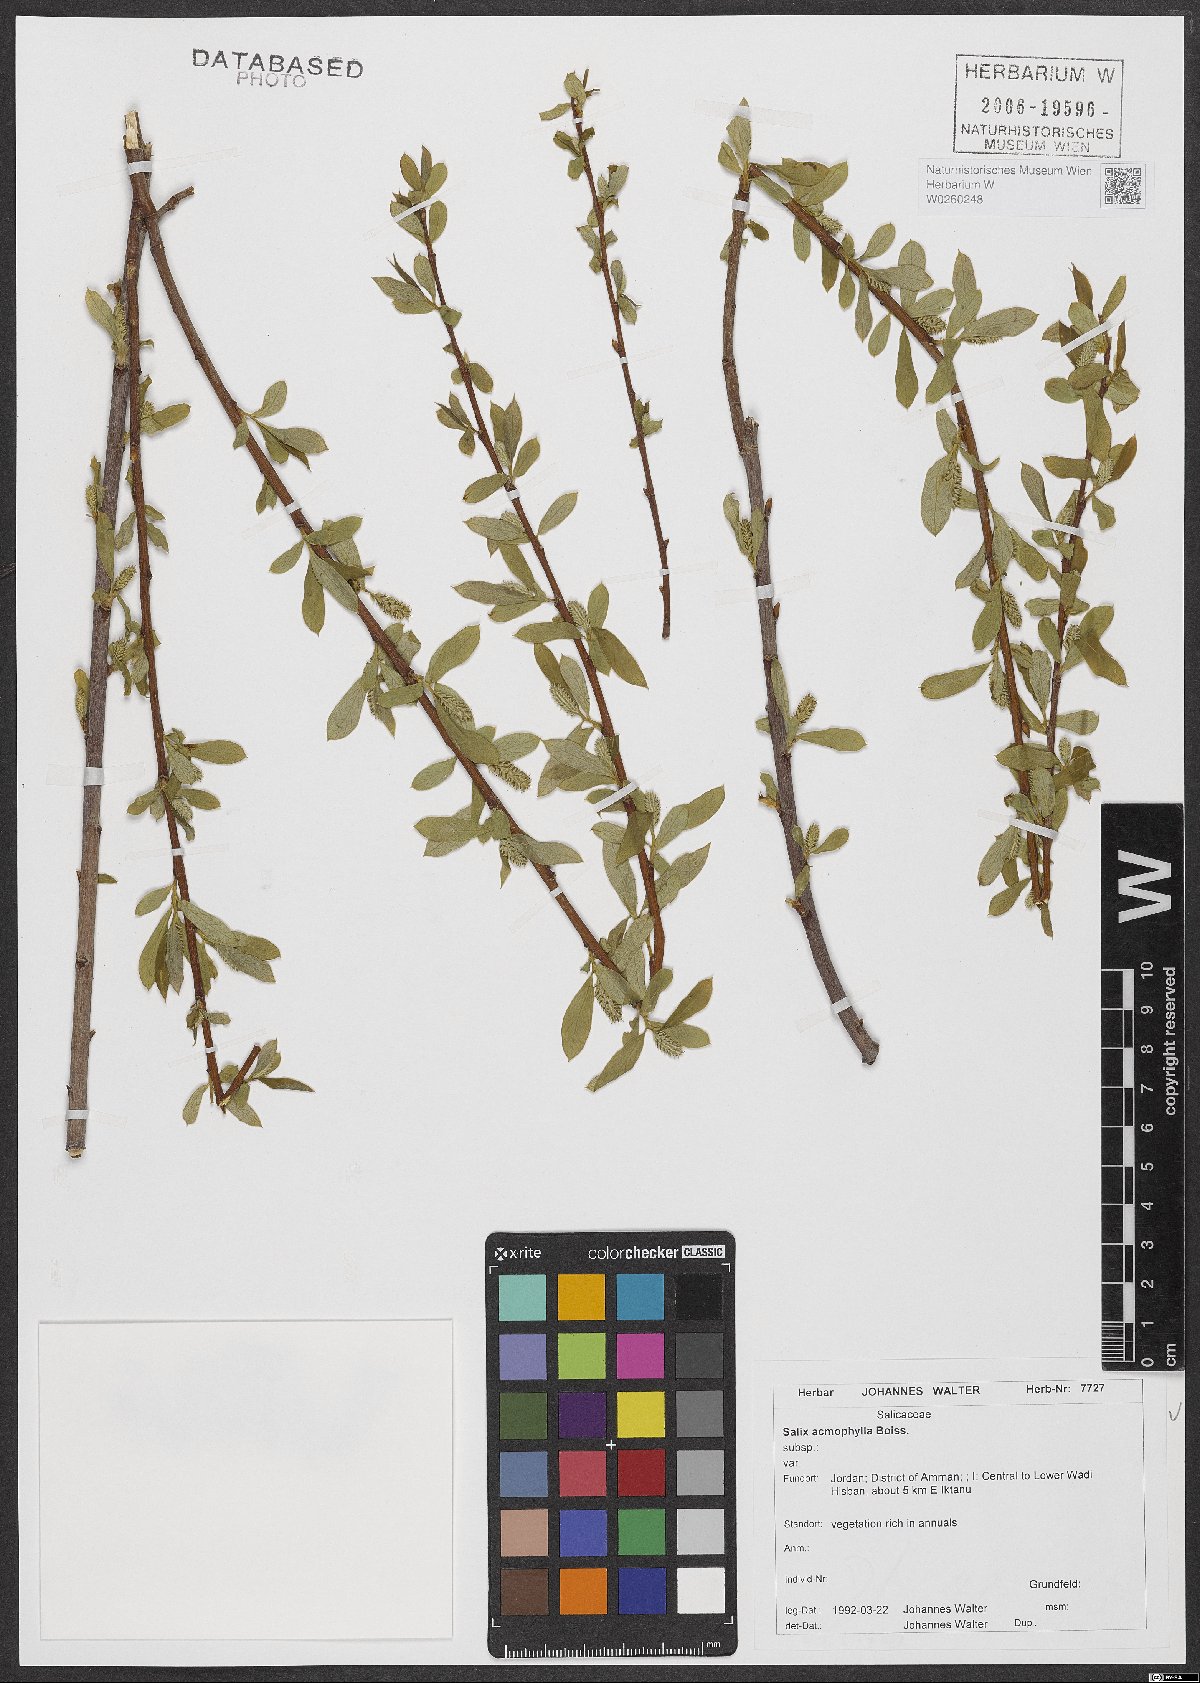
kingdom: Plantae
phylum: Tracheophyta
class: Magnoliopsida
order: Malpighiales
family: Salicaceae
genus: Salix
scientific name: Salix acmophylla
